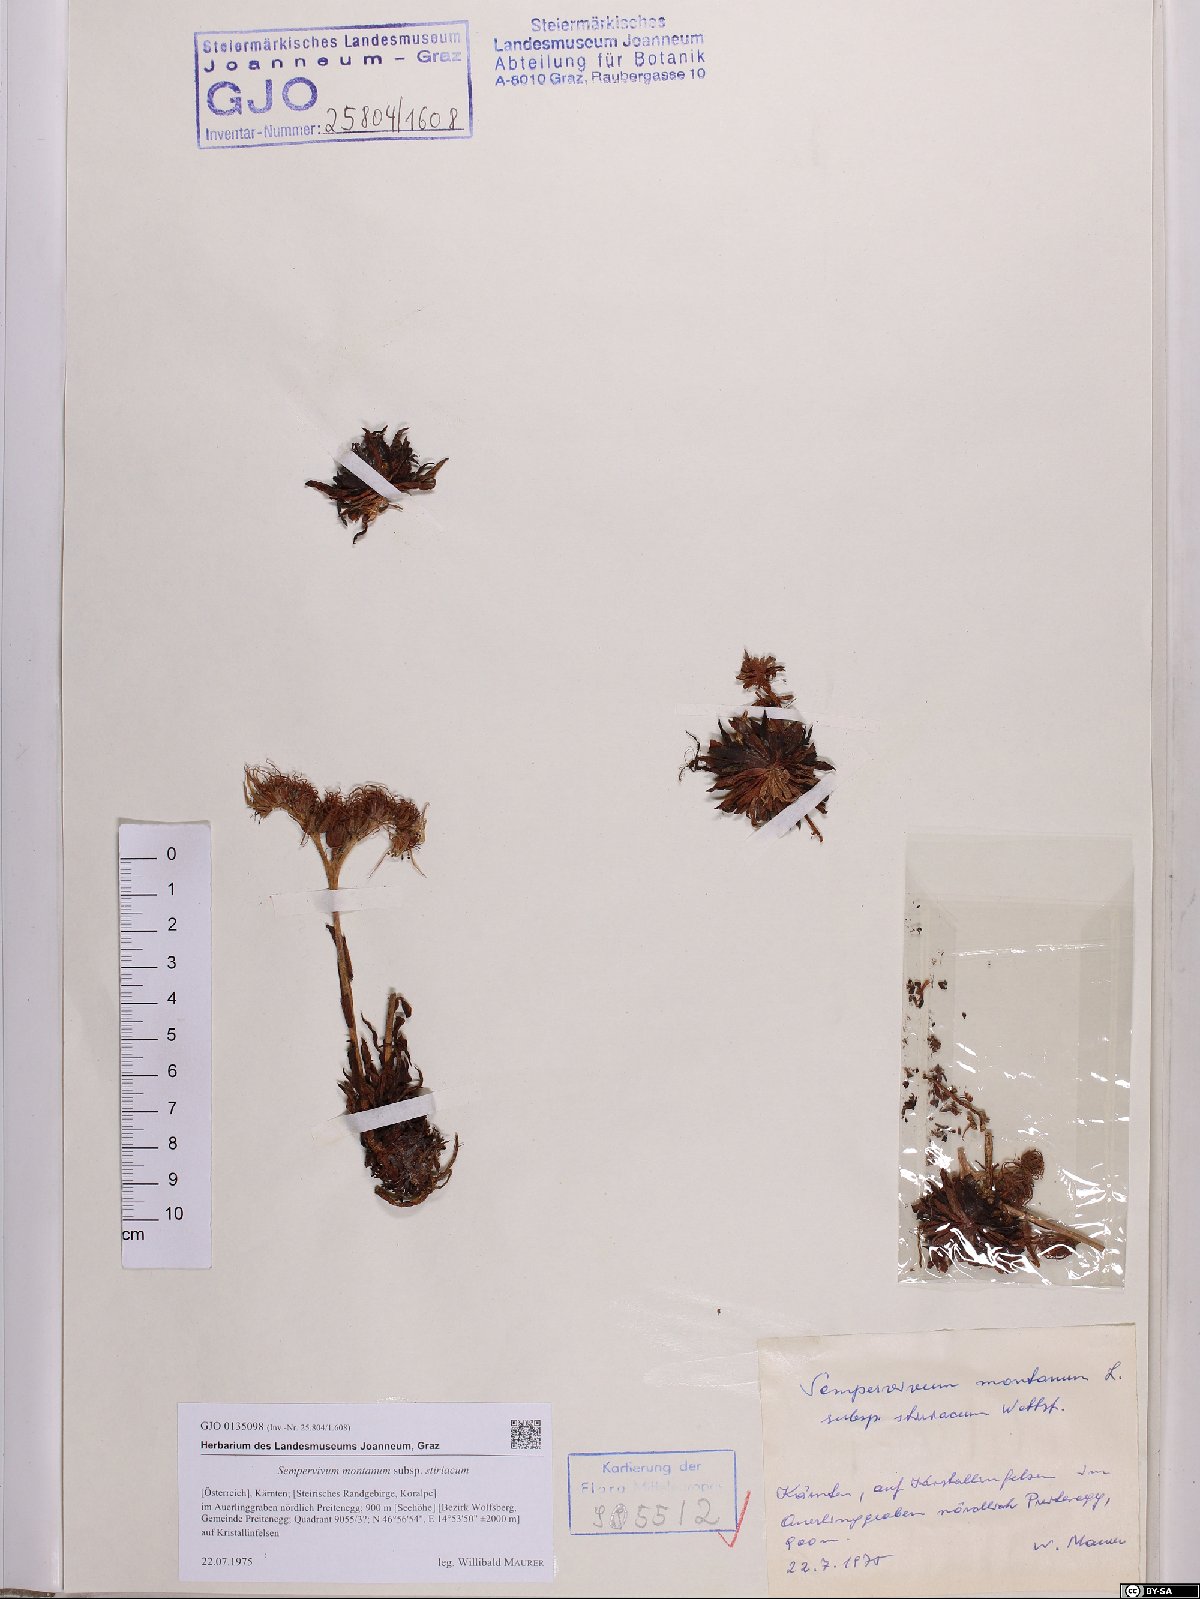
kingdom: Plantae
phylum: Tracheophyta
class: Magnoliopsida
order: Saxifragales
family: Crassulaceae
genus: Sempervivum
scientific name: Sempervivum montanum
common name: Mountain house-leek
